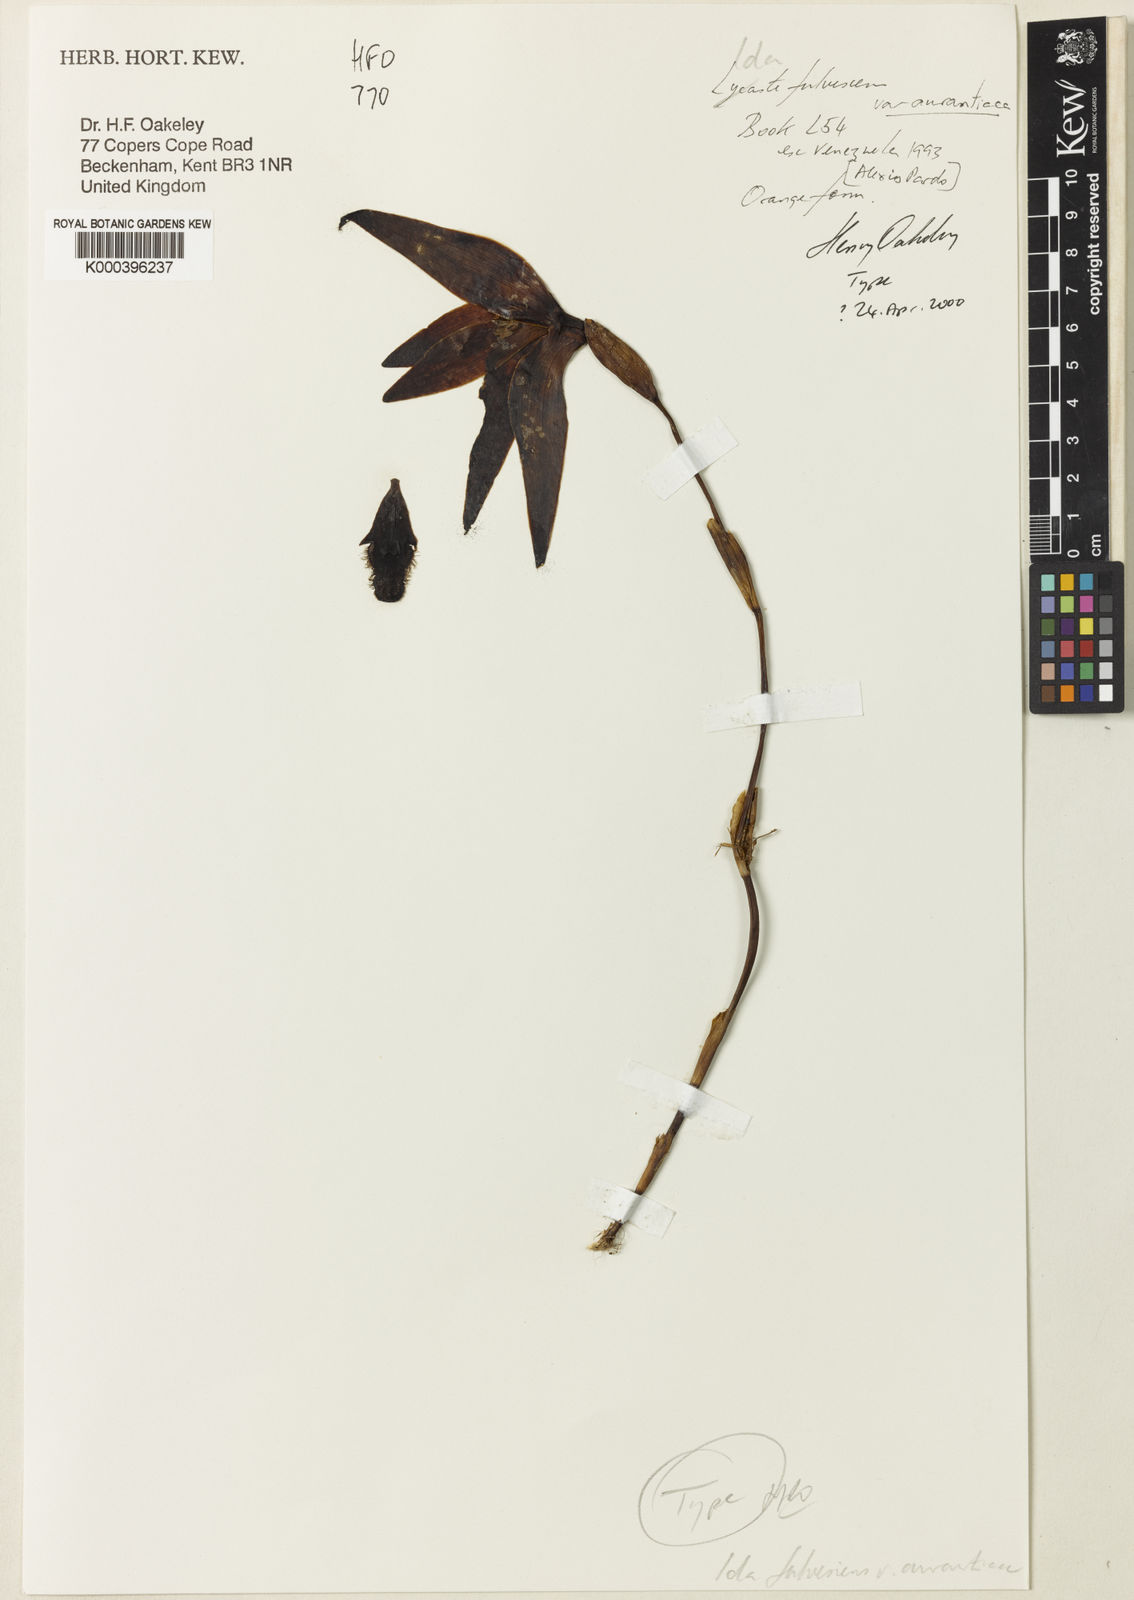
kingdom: Plantae
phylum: Tracheophyta
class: Liliopsida
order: Asparagales
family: Orchidaceae
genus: Ida
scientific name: Ida fulvescens
